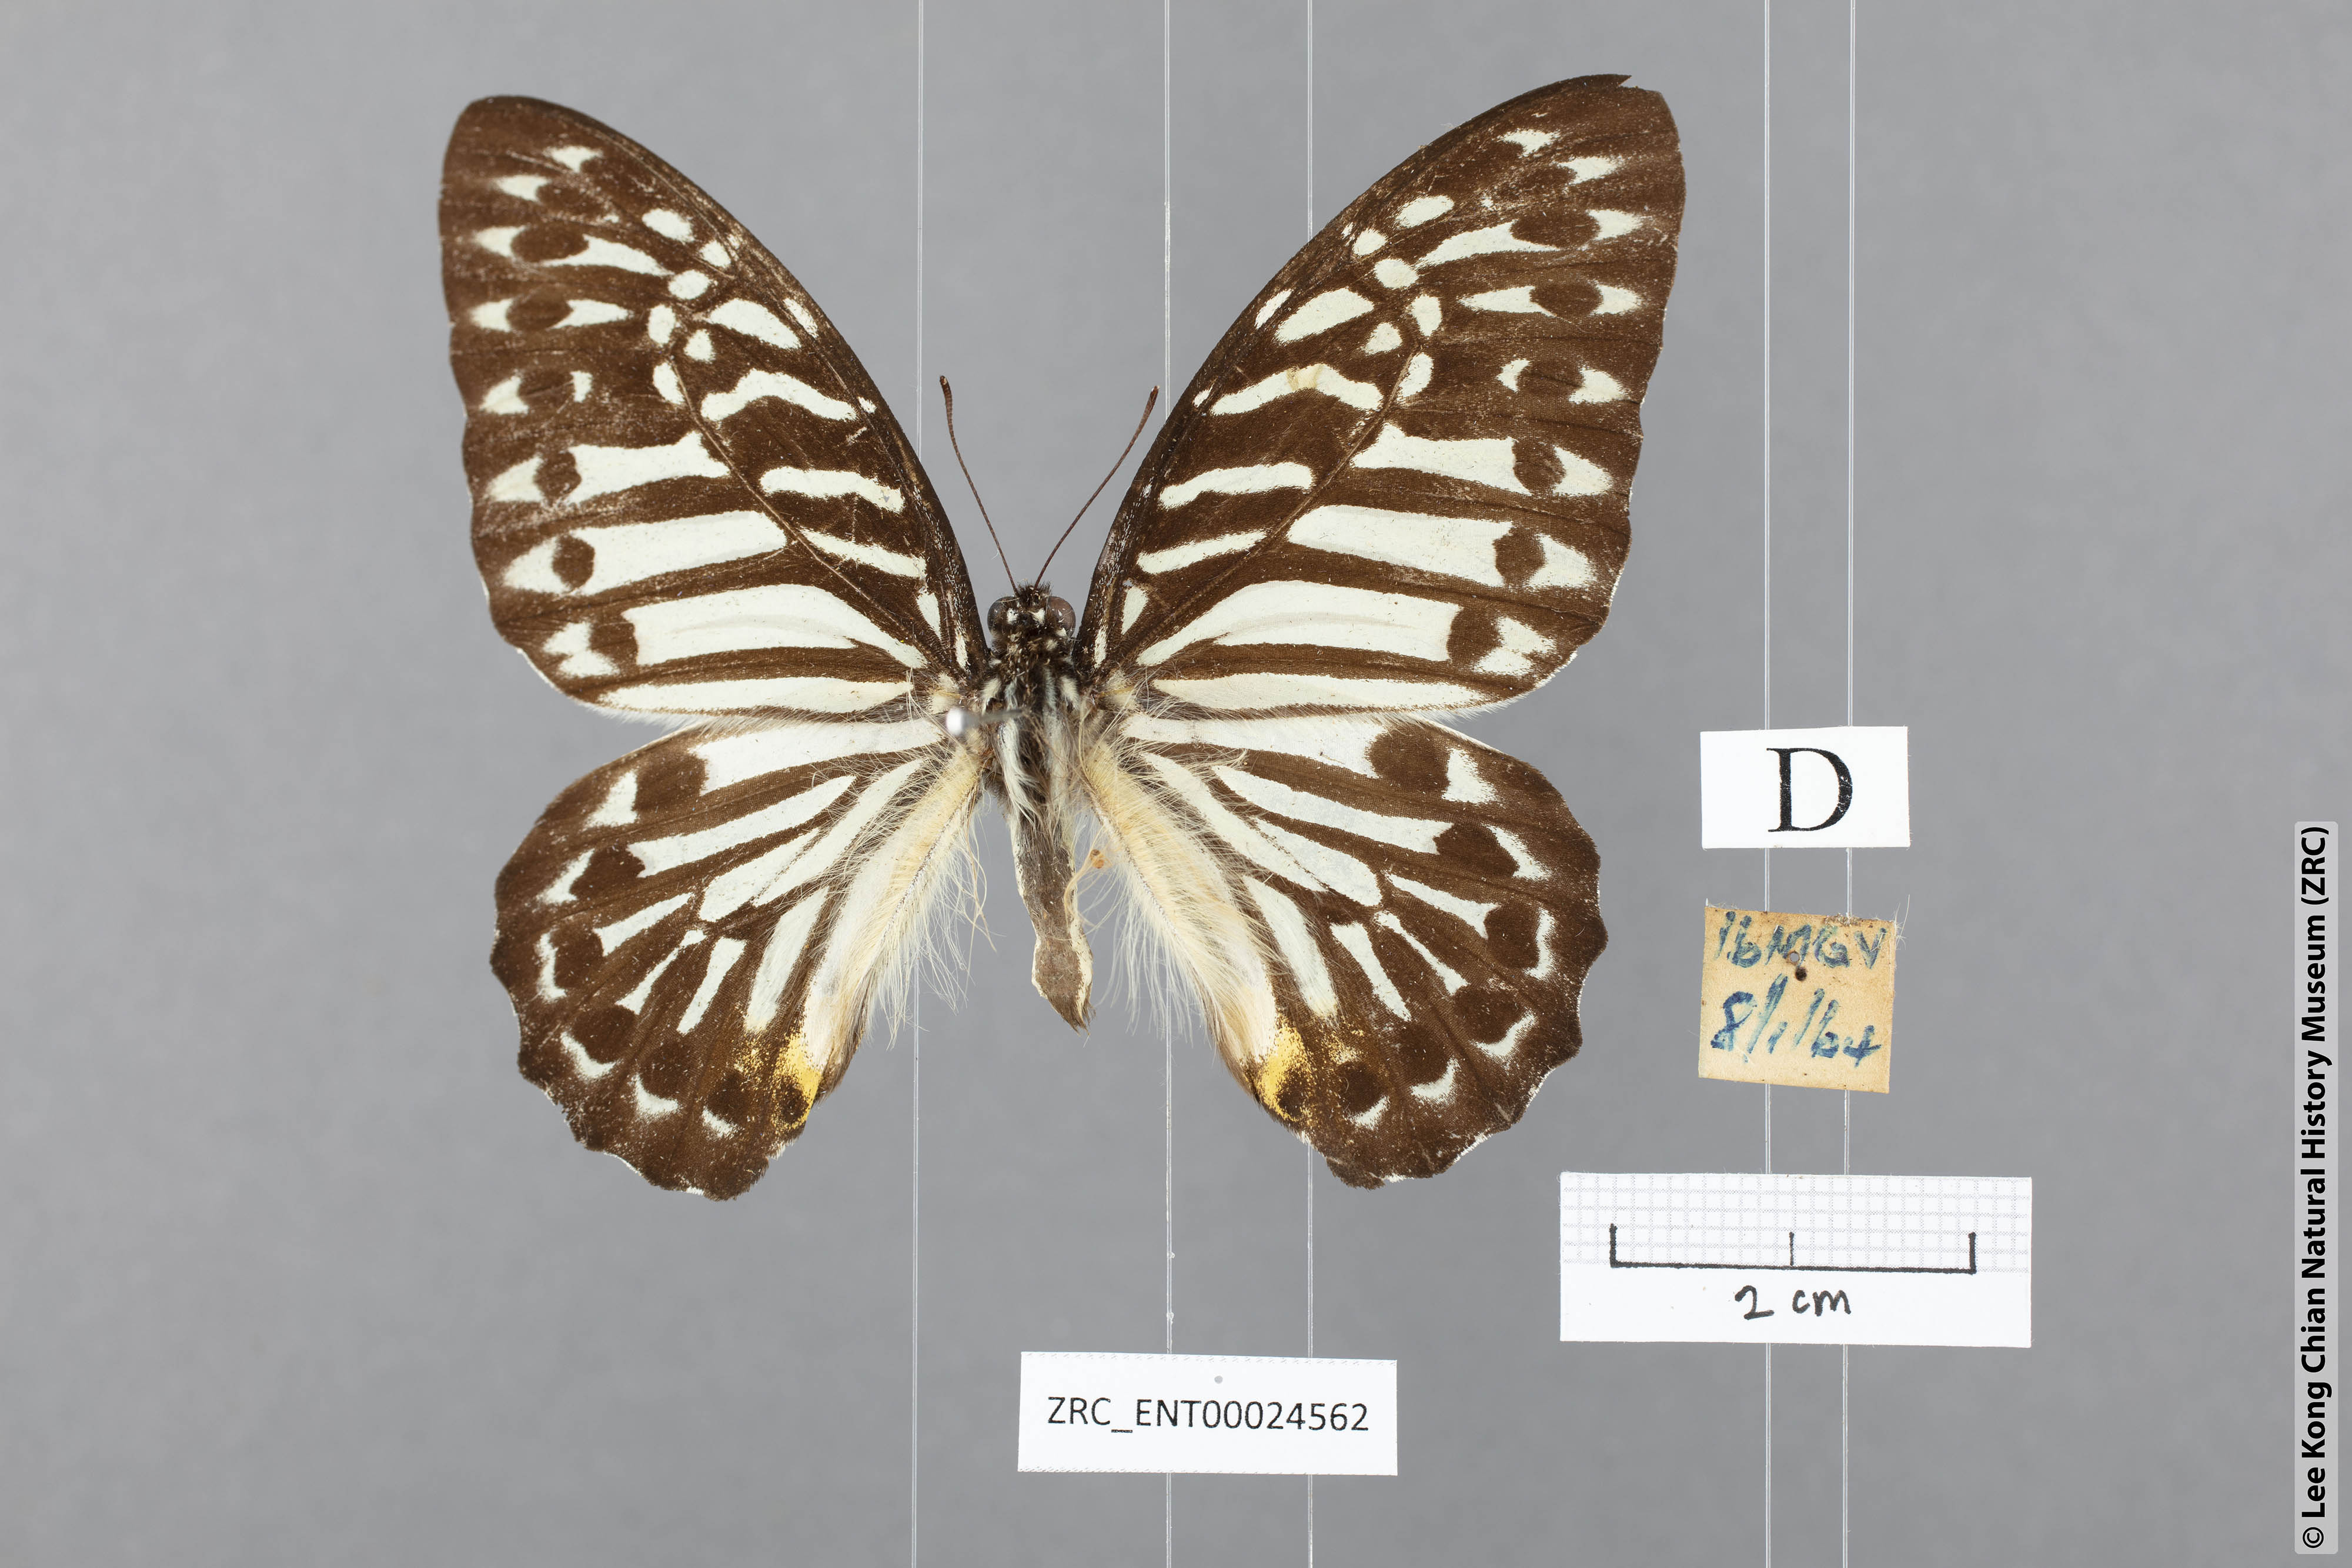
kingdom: Animalia
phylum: Arthropoda
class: Insecta
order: Lepidoptera
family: Papilionidae
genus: Graphium
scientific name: Graphium delesserti
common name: Malayan zebra
